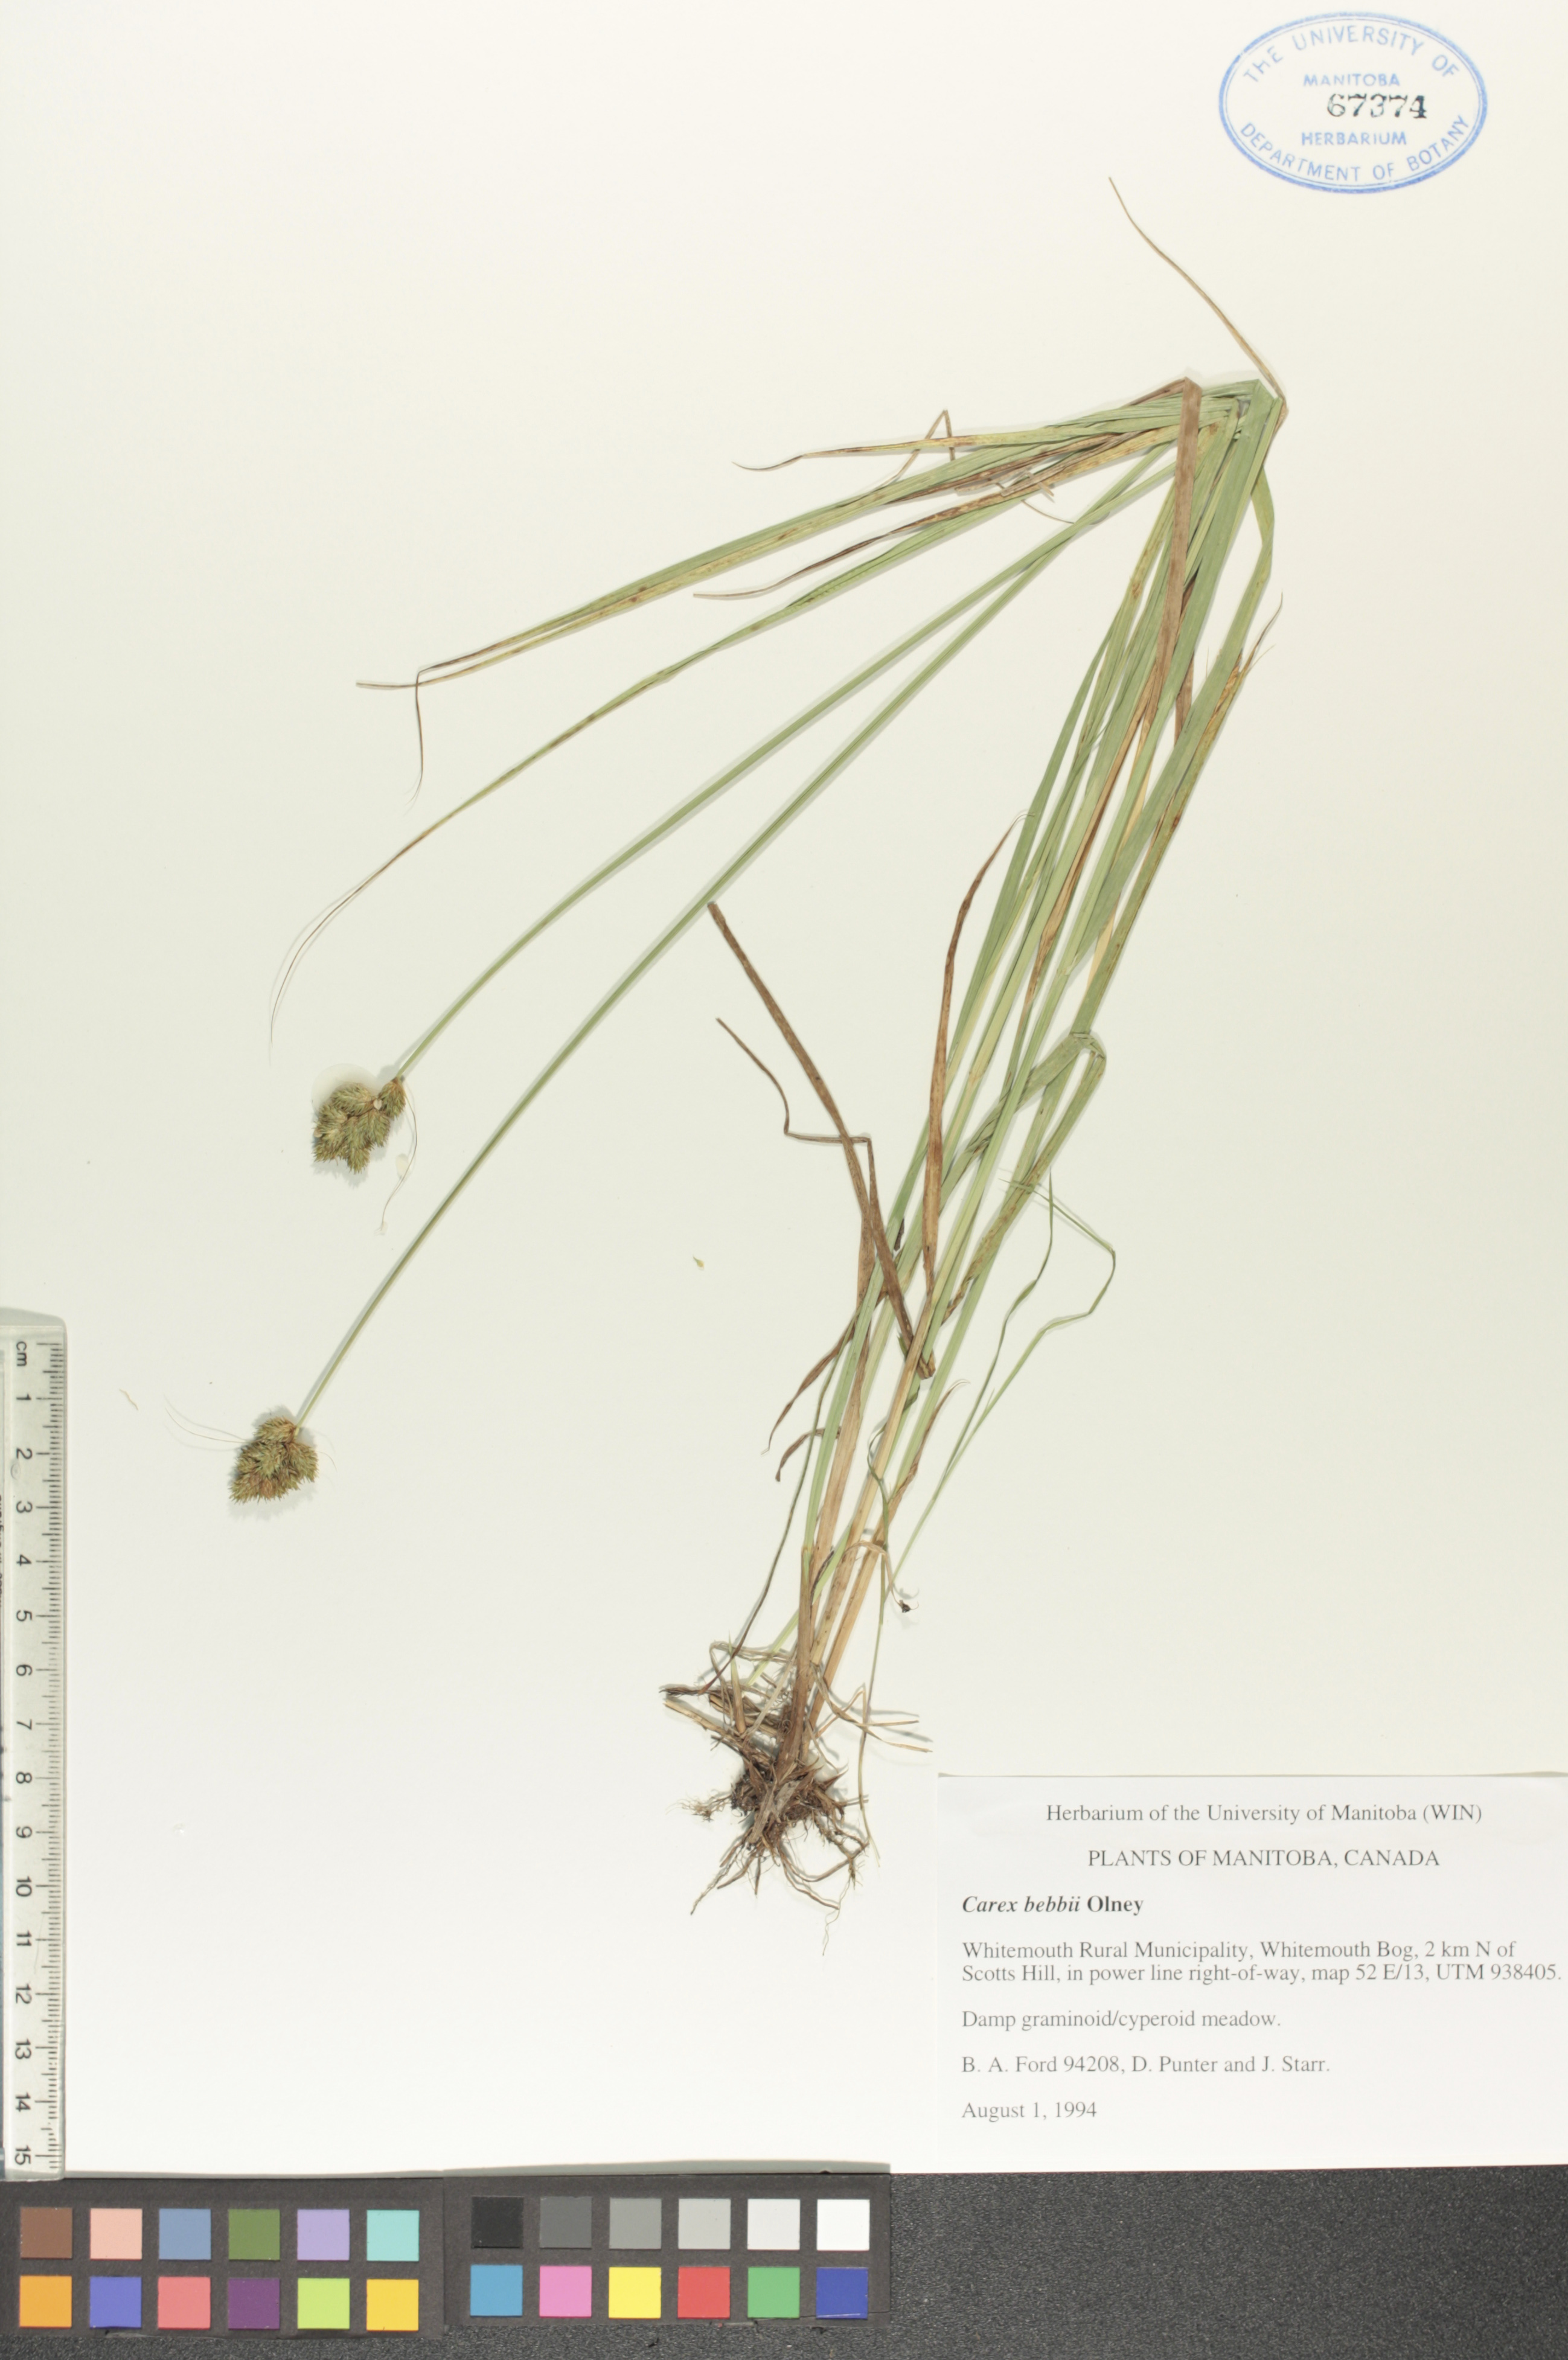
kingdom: Plantae
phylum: Tracheophyta
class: Liliopsida
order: Poales
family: Cyperaceae
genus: Carex
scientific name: Carex bebbii
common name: Bebb's sedge
